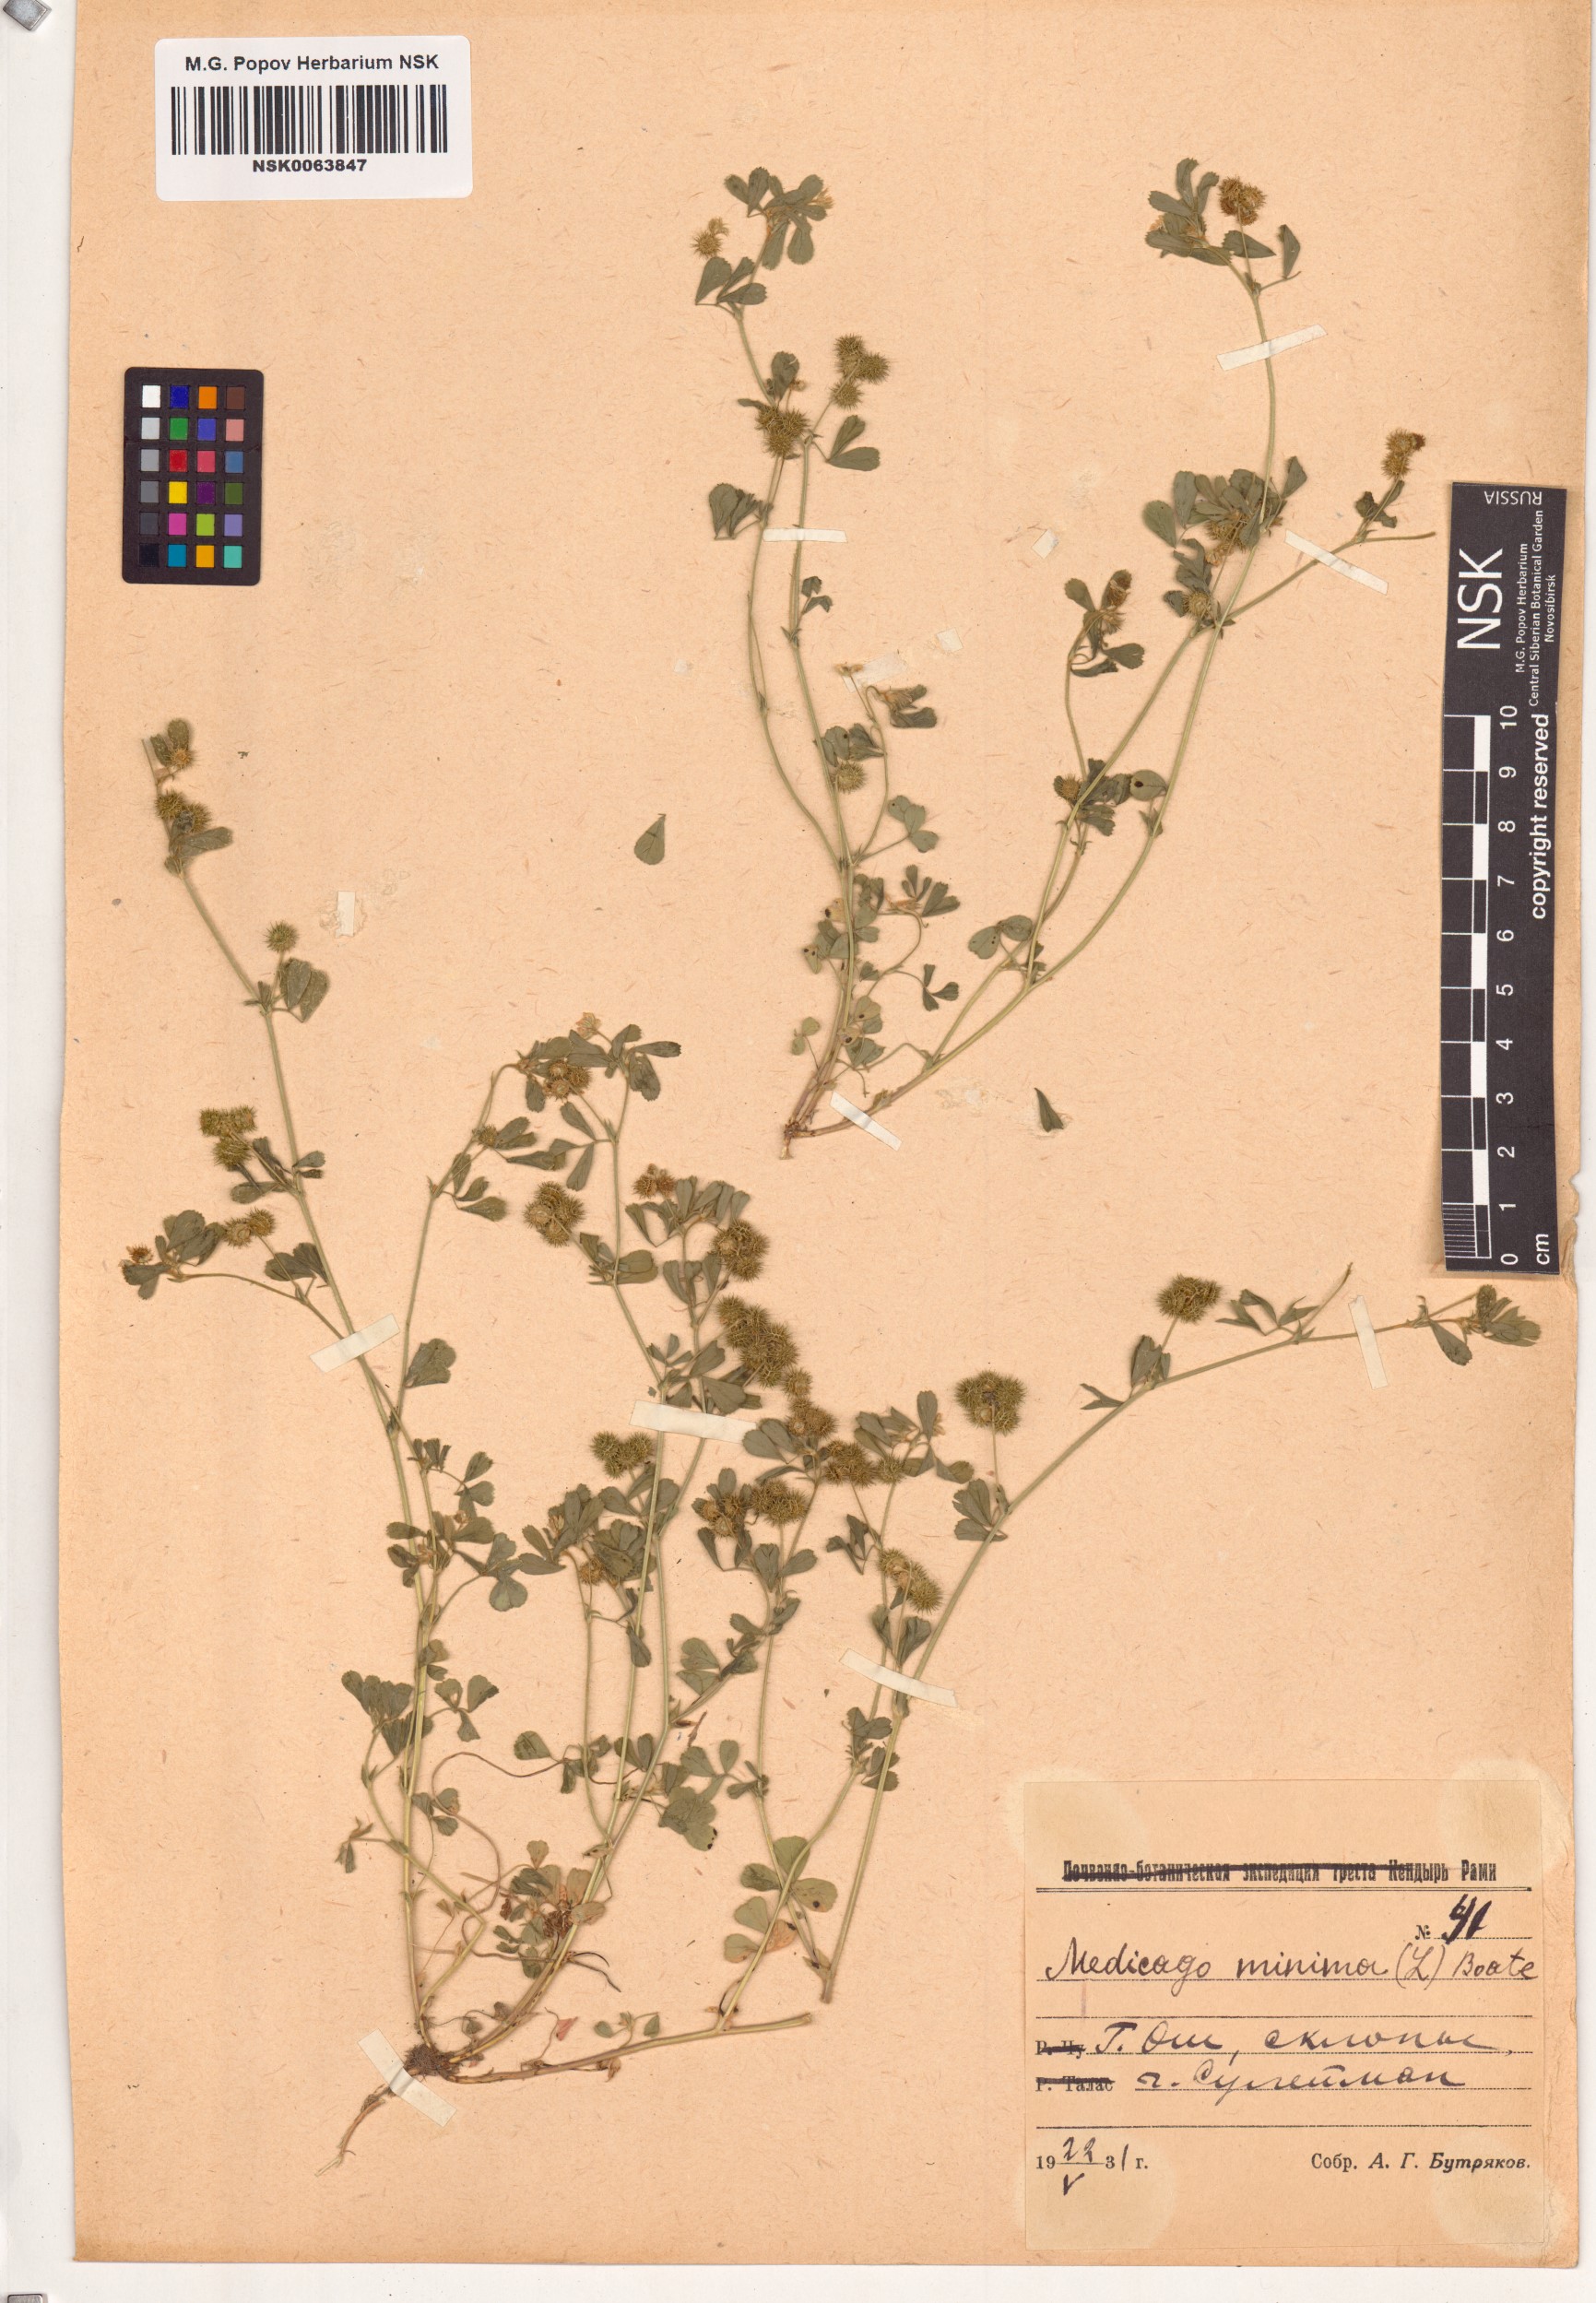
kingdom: Plantae
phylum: Tracheophyta
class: Magnoliopsida
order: Fabales
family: Fabaceae
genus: Medicago
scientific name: Medicago minima
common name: Little bur-clover
